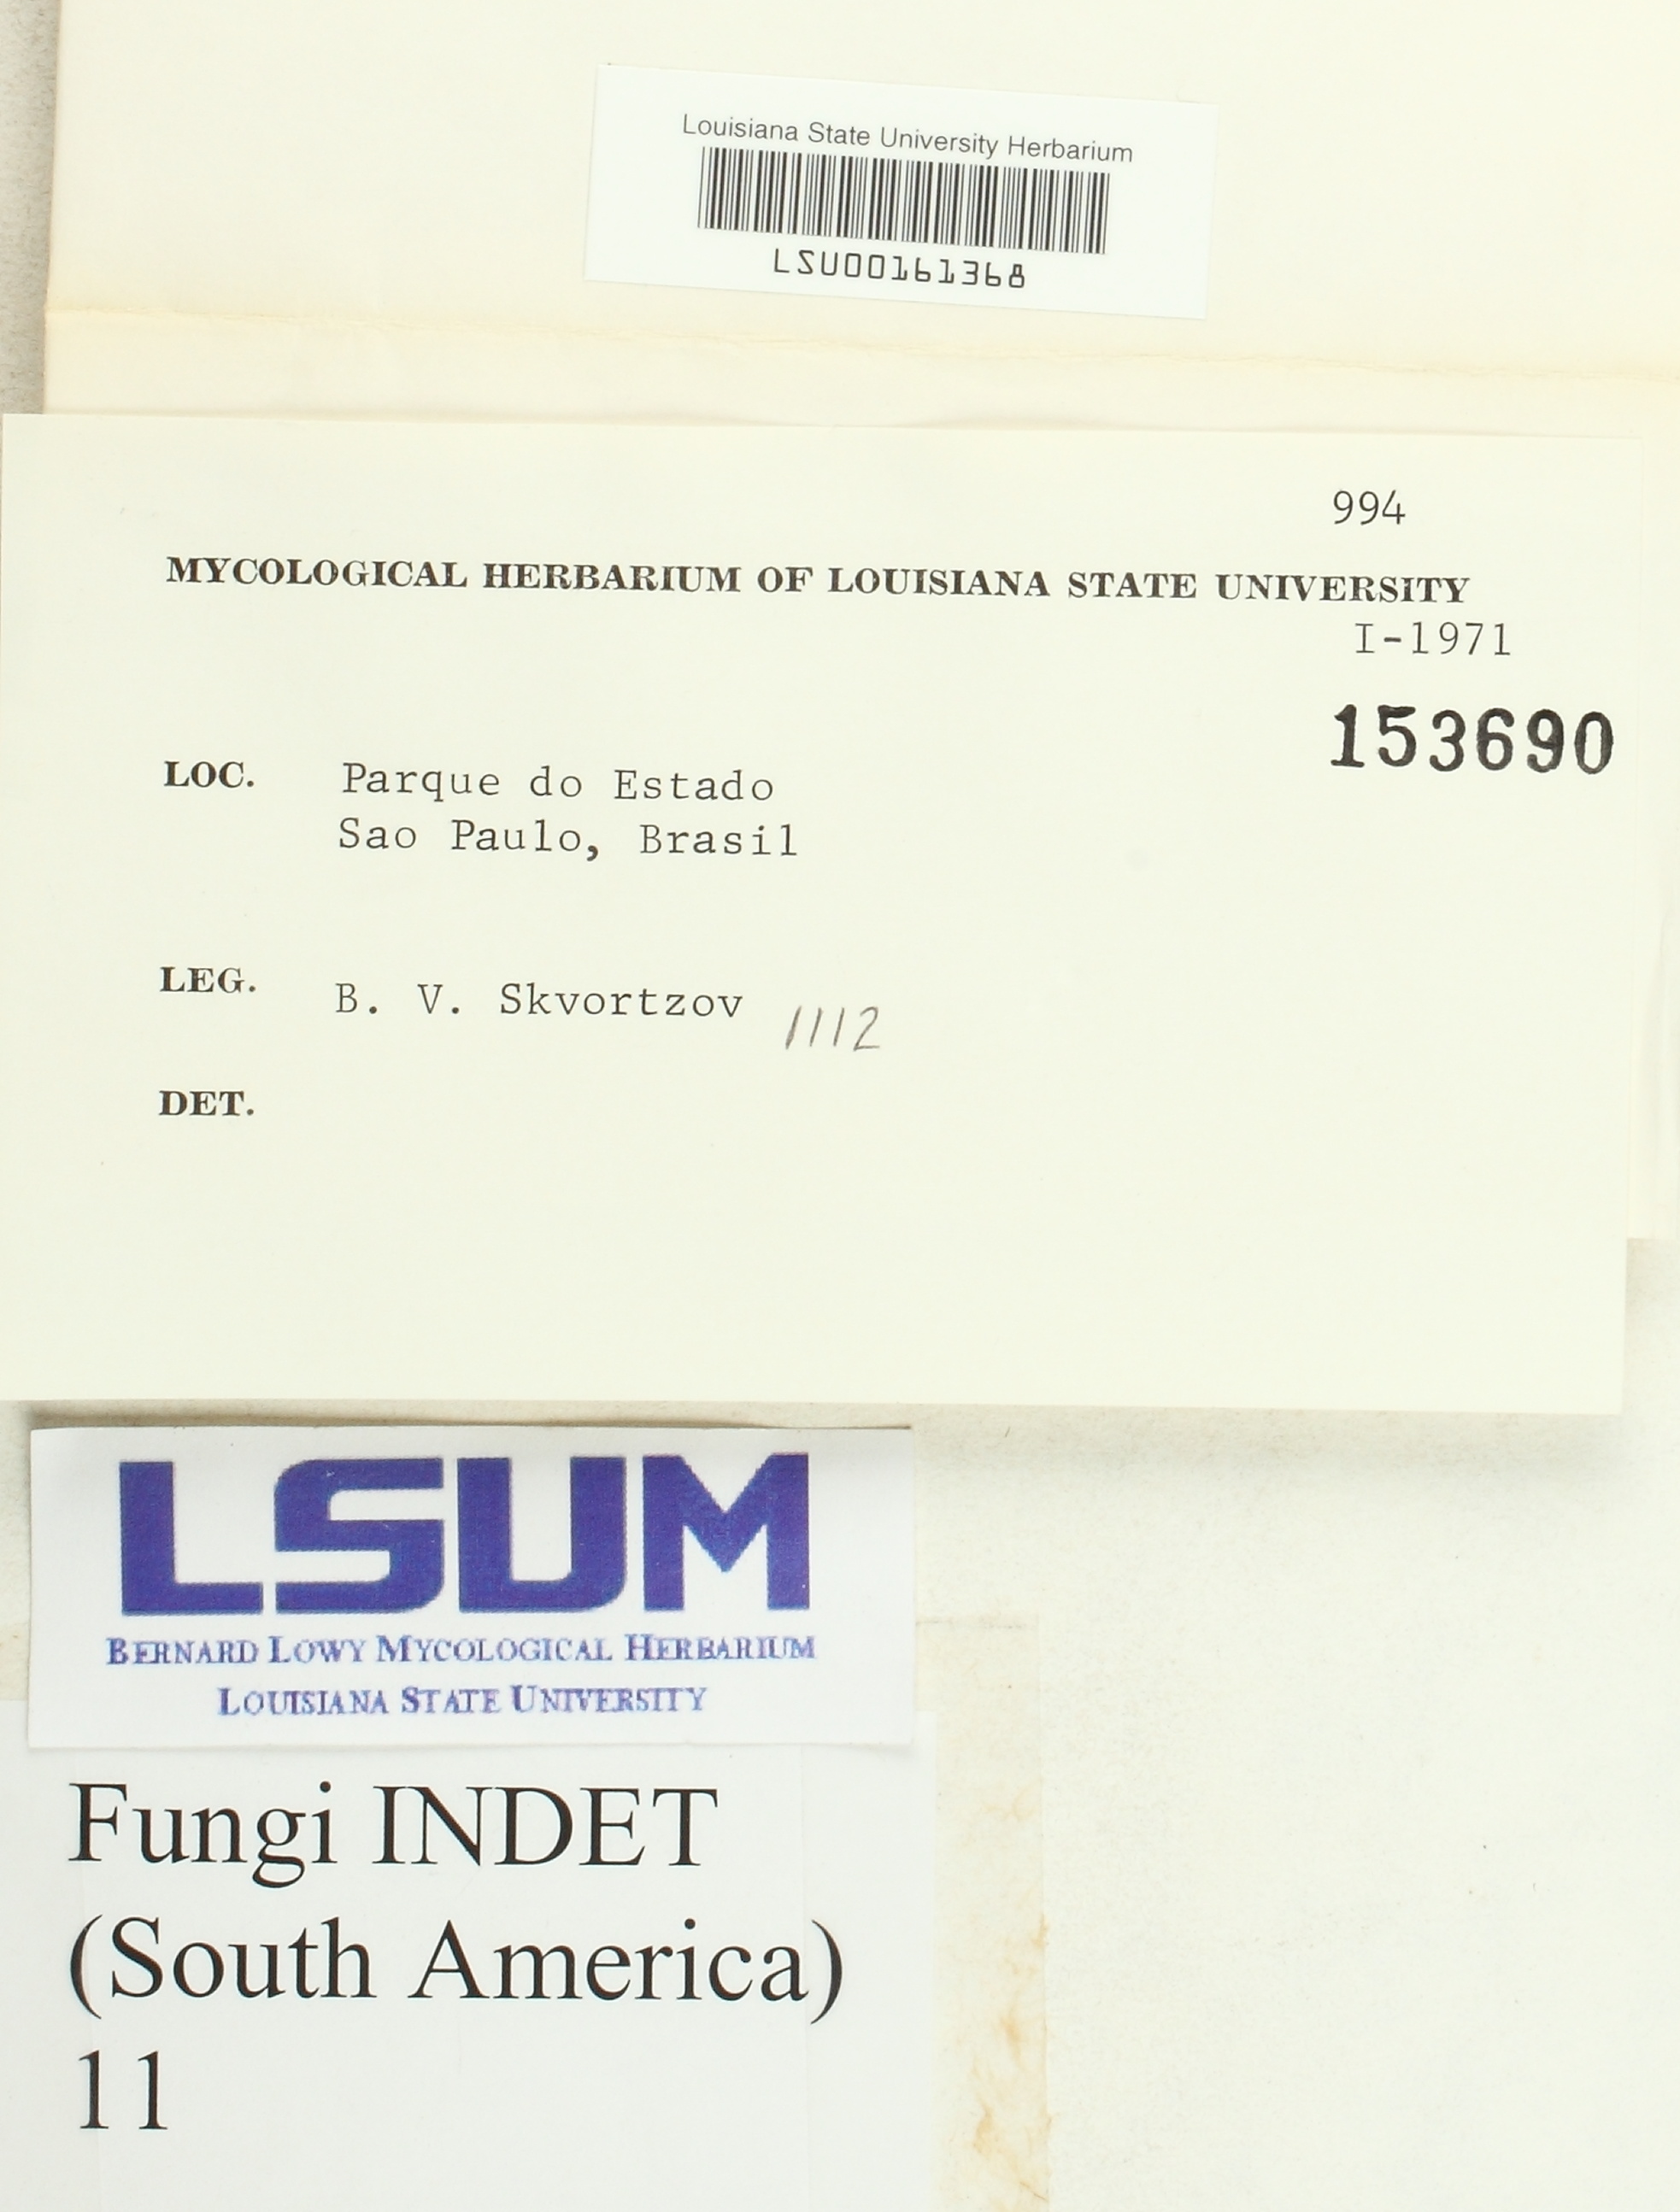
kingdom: Fungi
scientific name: Fungi
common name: Fungi
